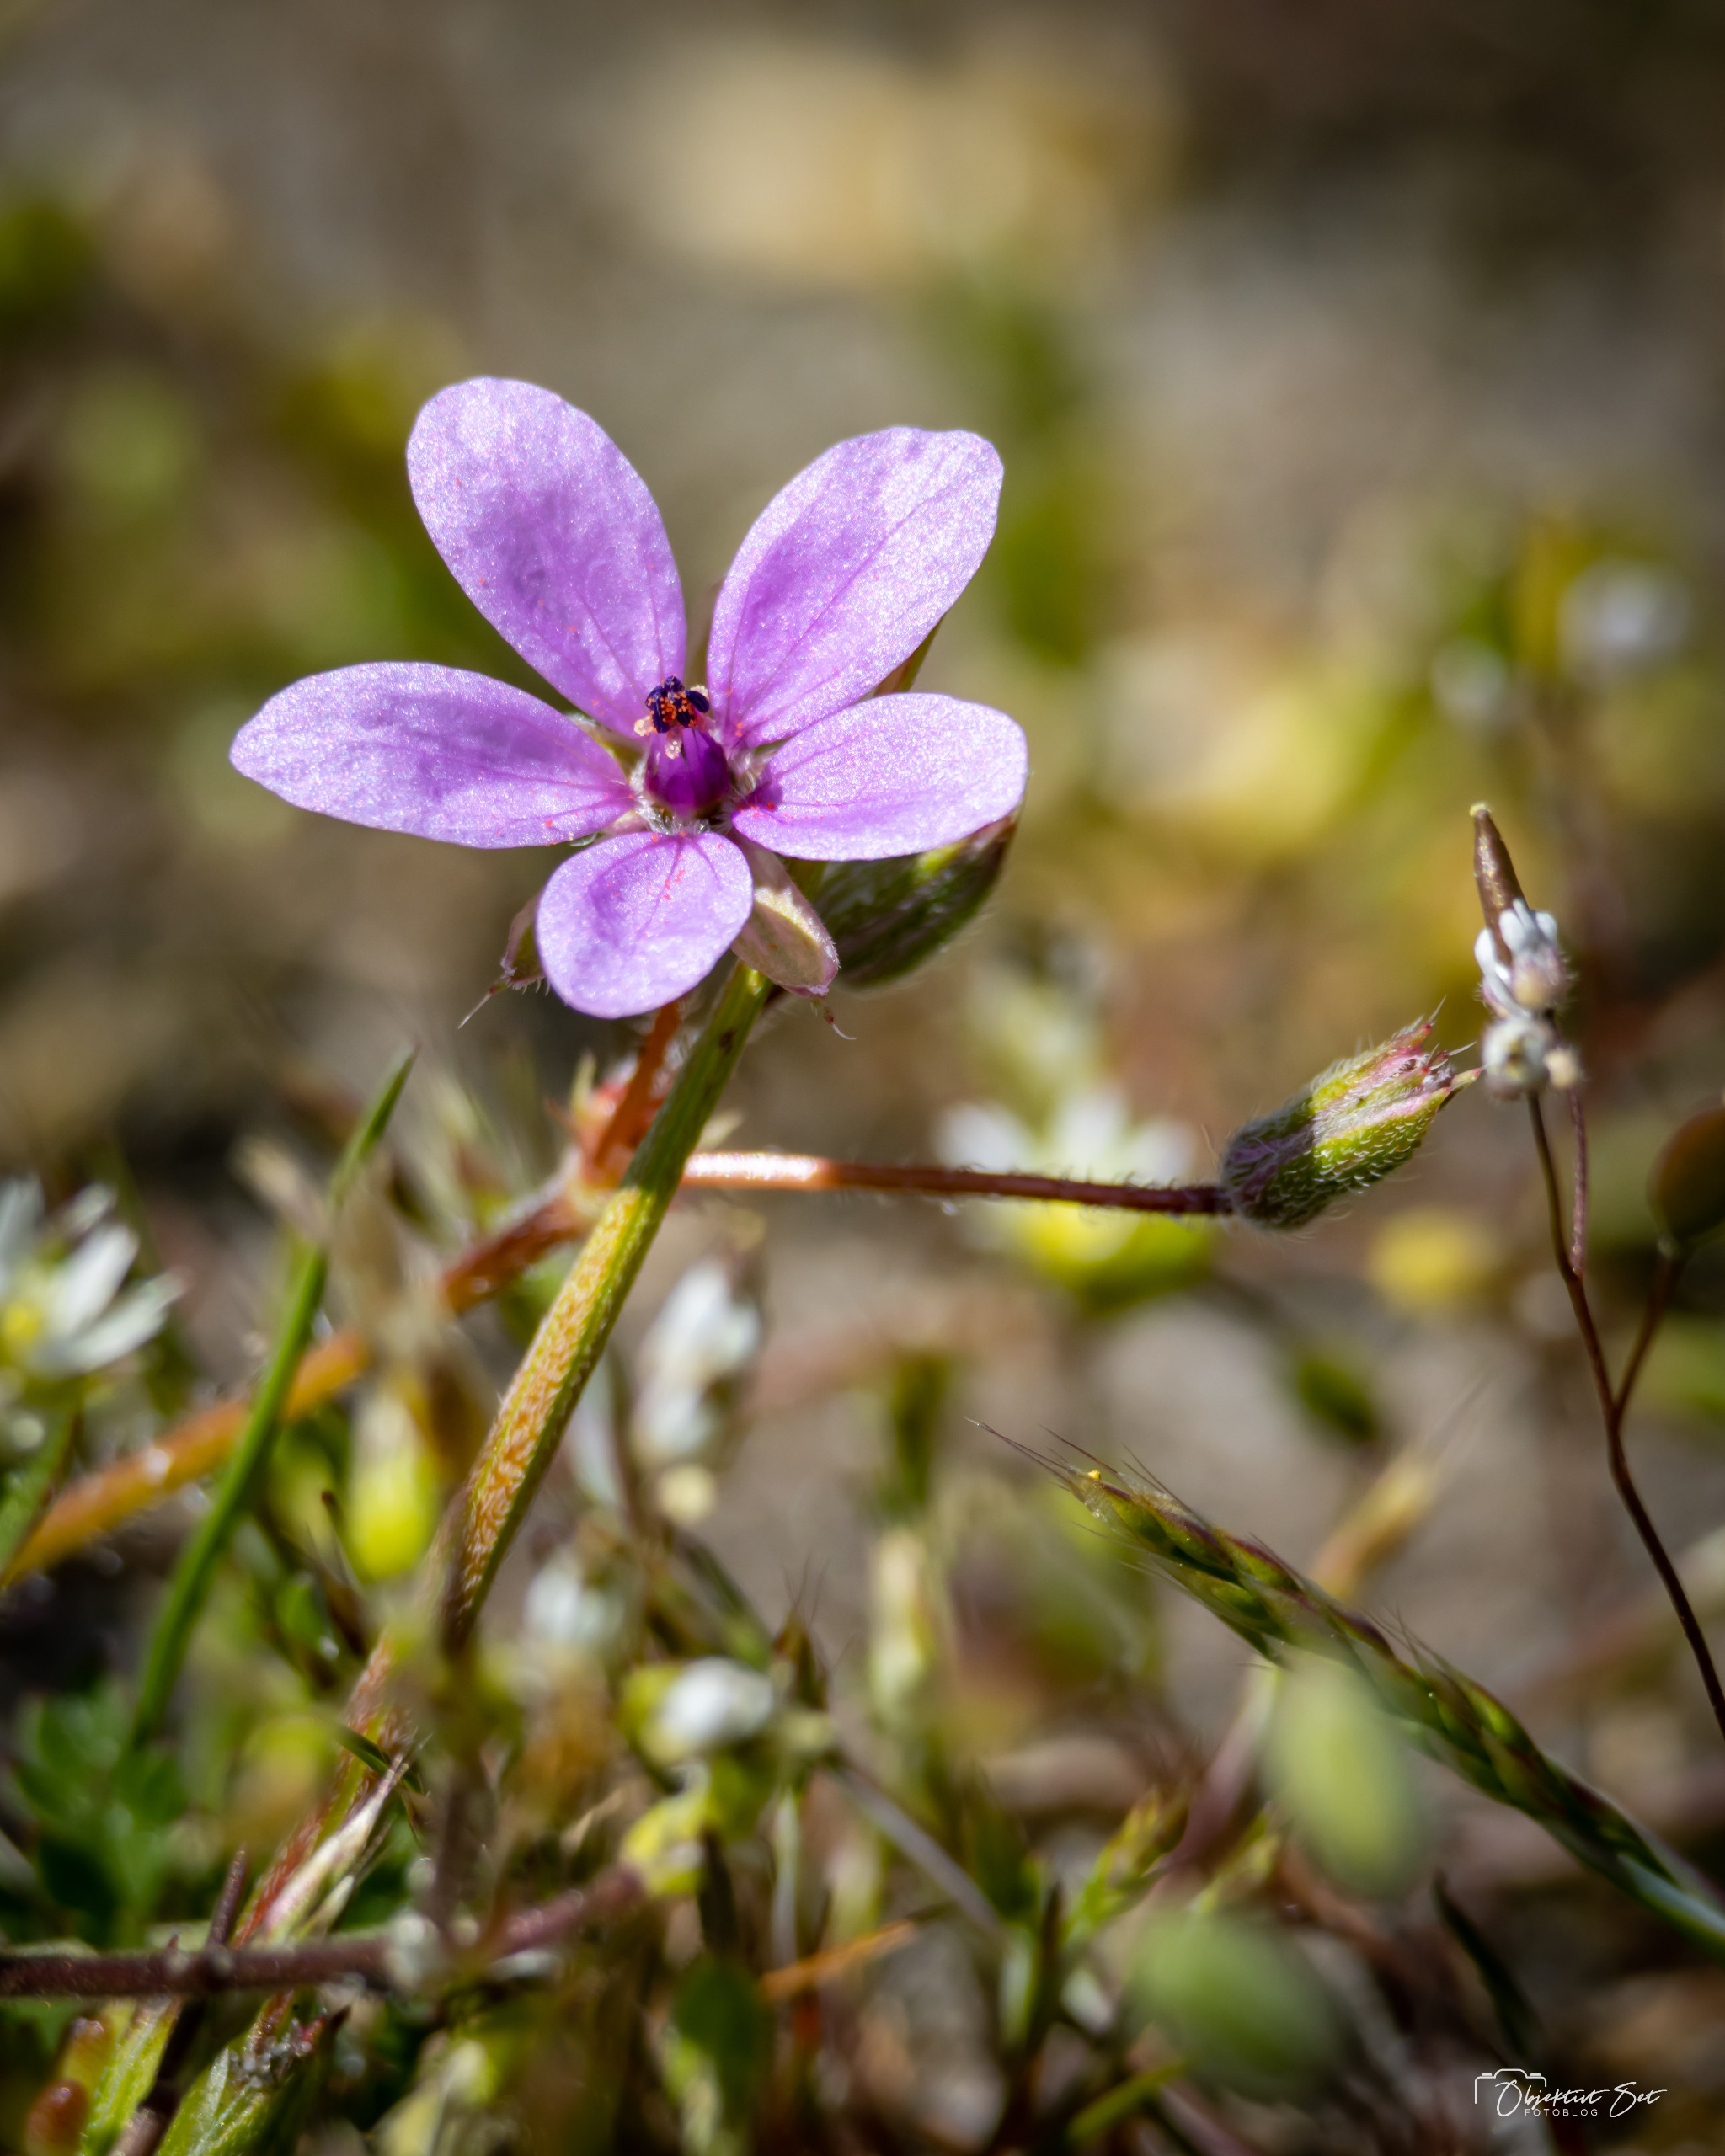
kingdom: Plantae
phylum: Tracheophyta
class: Magnoliopsida
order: Geraniales
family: Geraniaceae
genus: Erodium
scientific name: Erodium cicutarium
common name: Hejrenæb
